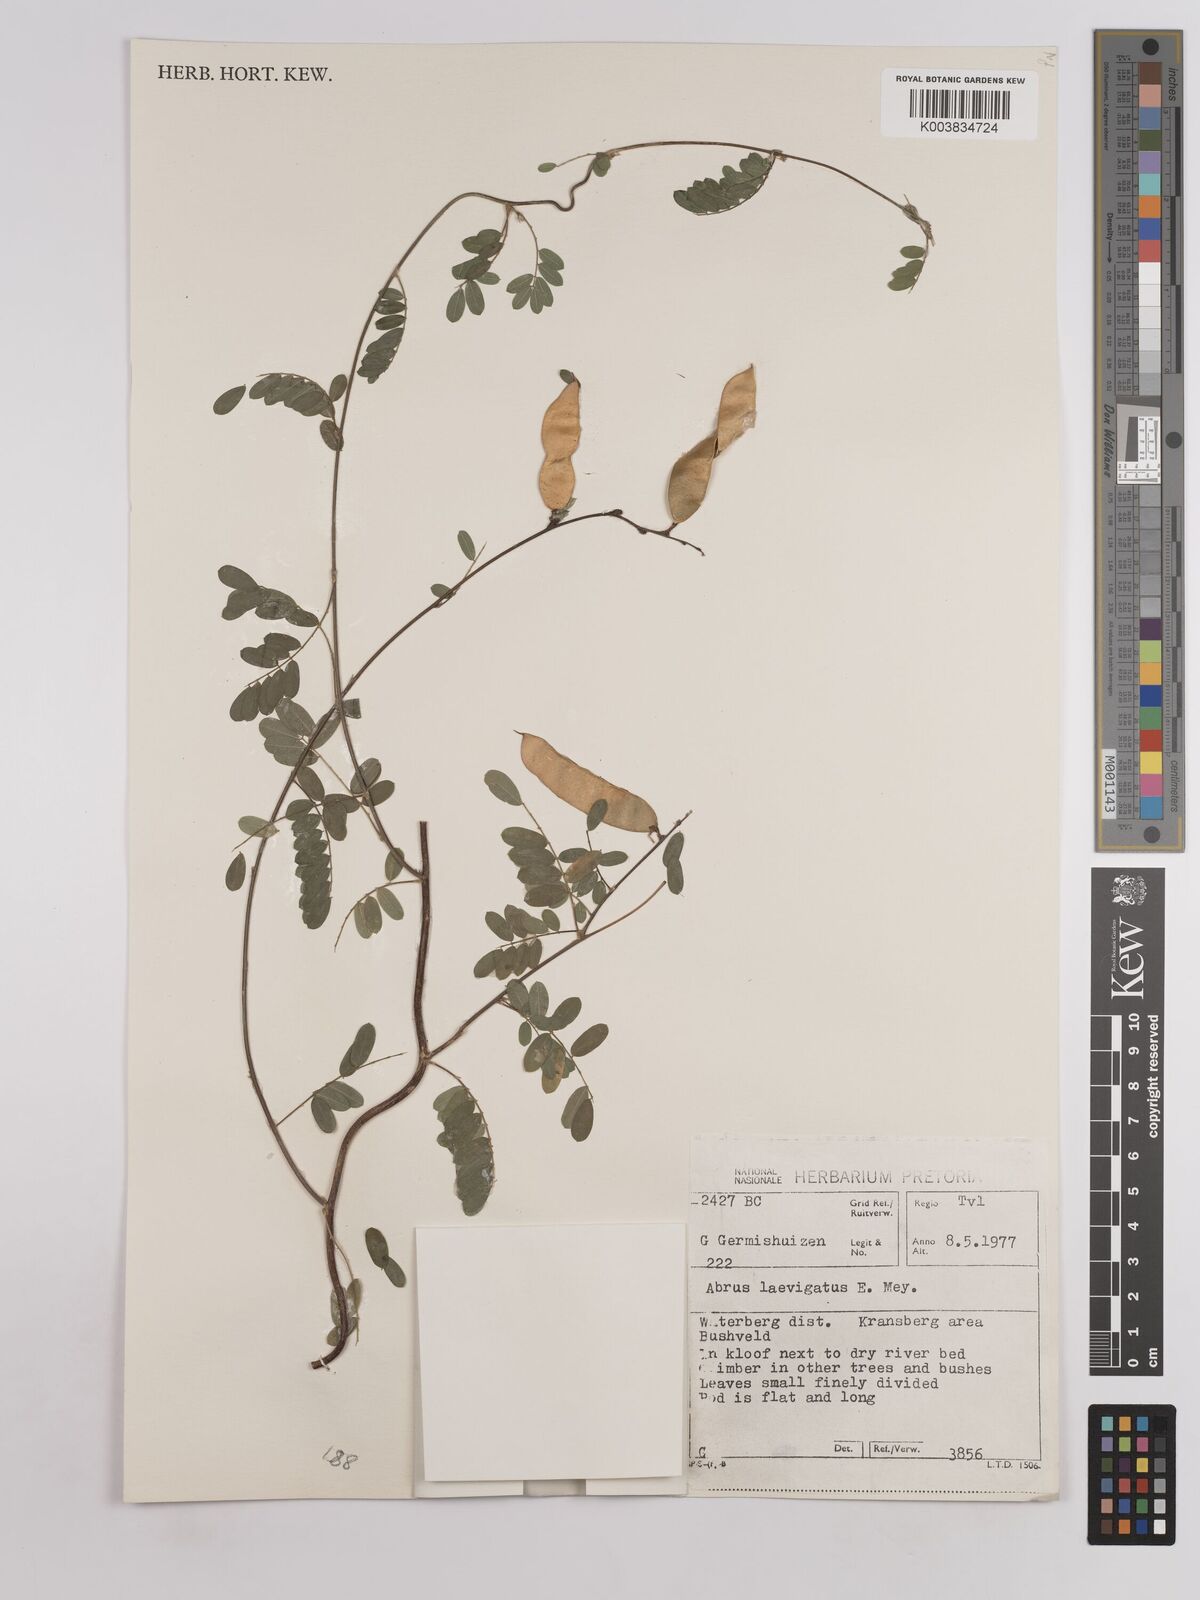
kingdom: Plantae
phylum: Tracheophyta
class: Magnoliopsida
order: Fabales
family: Fabaceae
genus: Abrus
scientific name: Abrus laevigatus
